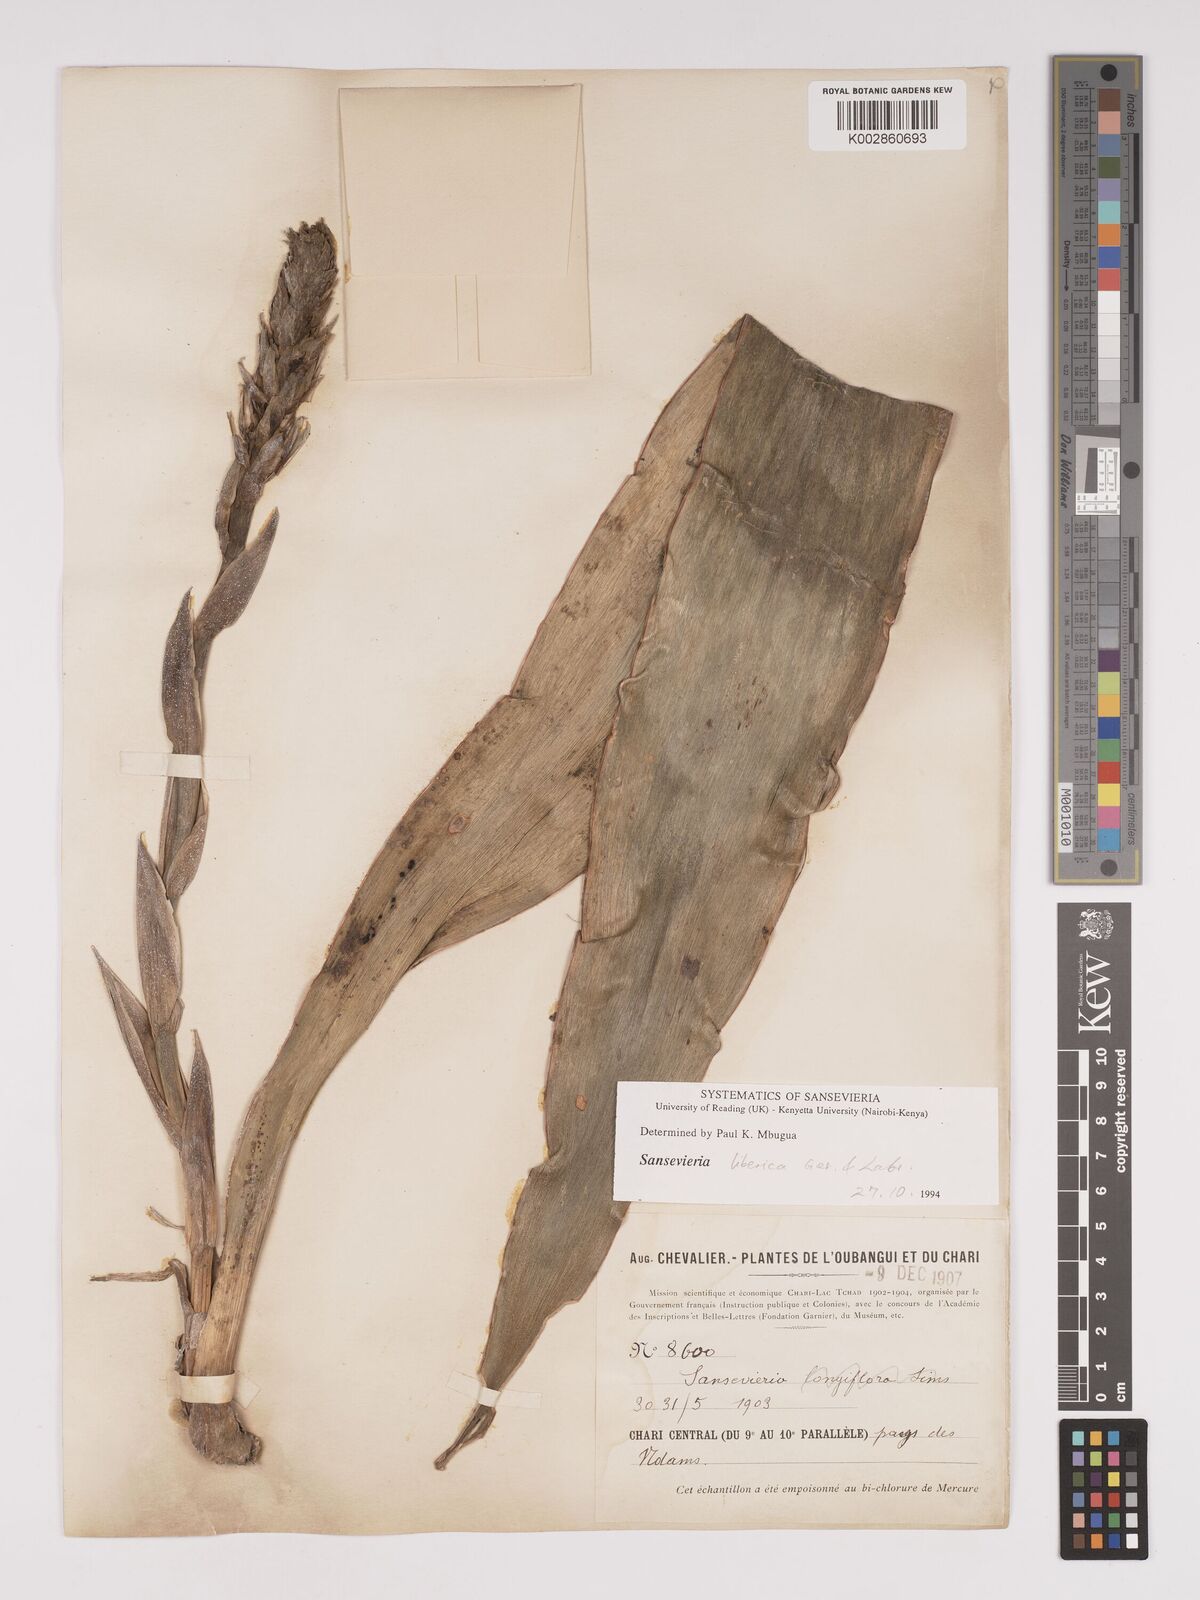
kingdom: Plantae
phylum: Tracheophyta
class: Liliopsida
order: Asparagales
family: Asparagaceae
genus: Dracaena
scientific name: Dracaena liberica
